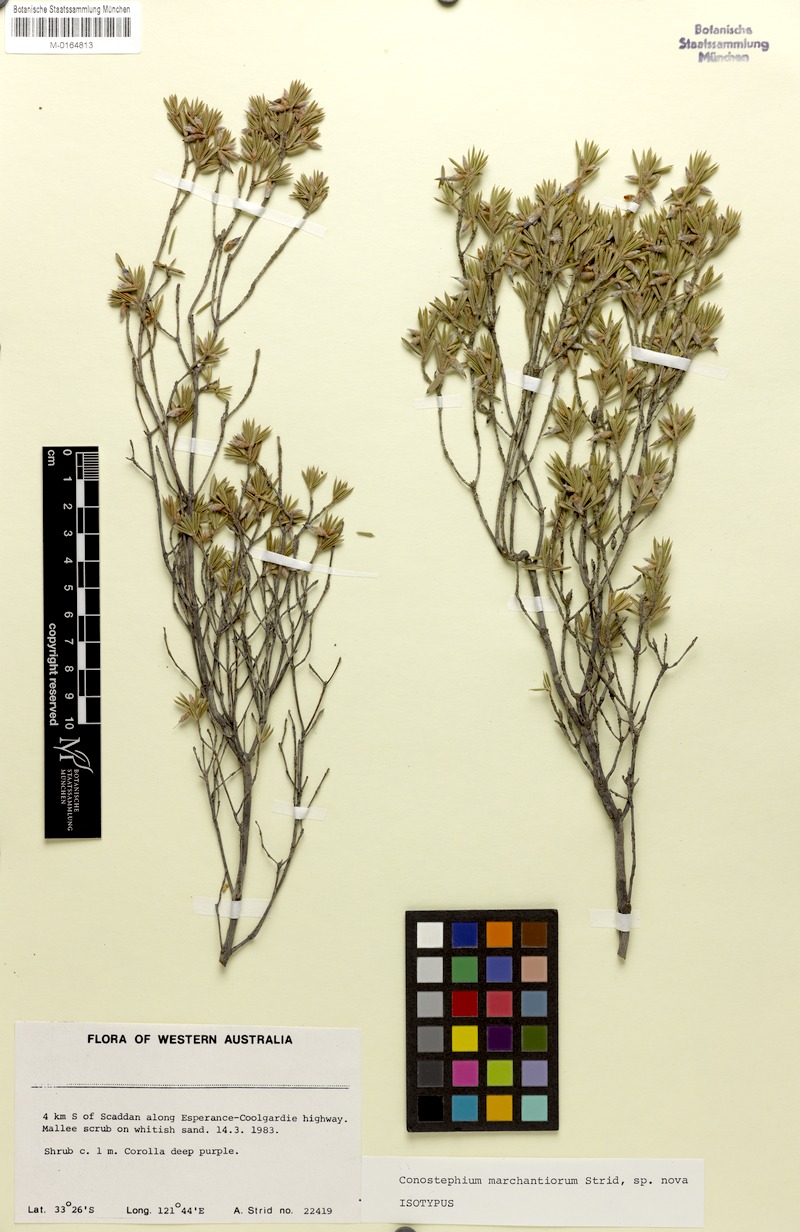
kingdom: Plantae
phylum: Tracheophyta
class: Magnoliopsida
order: Ericales
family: Ericaceae
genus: Conostephium
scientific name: Conostephium marchantiorum
